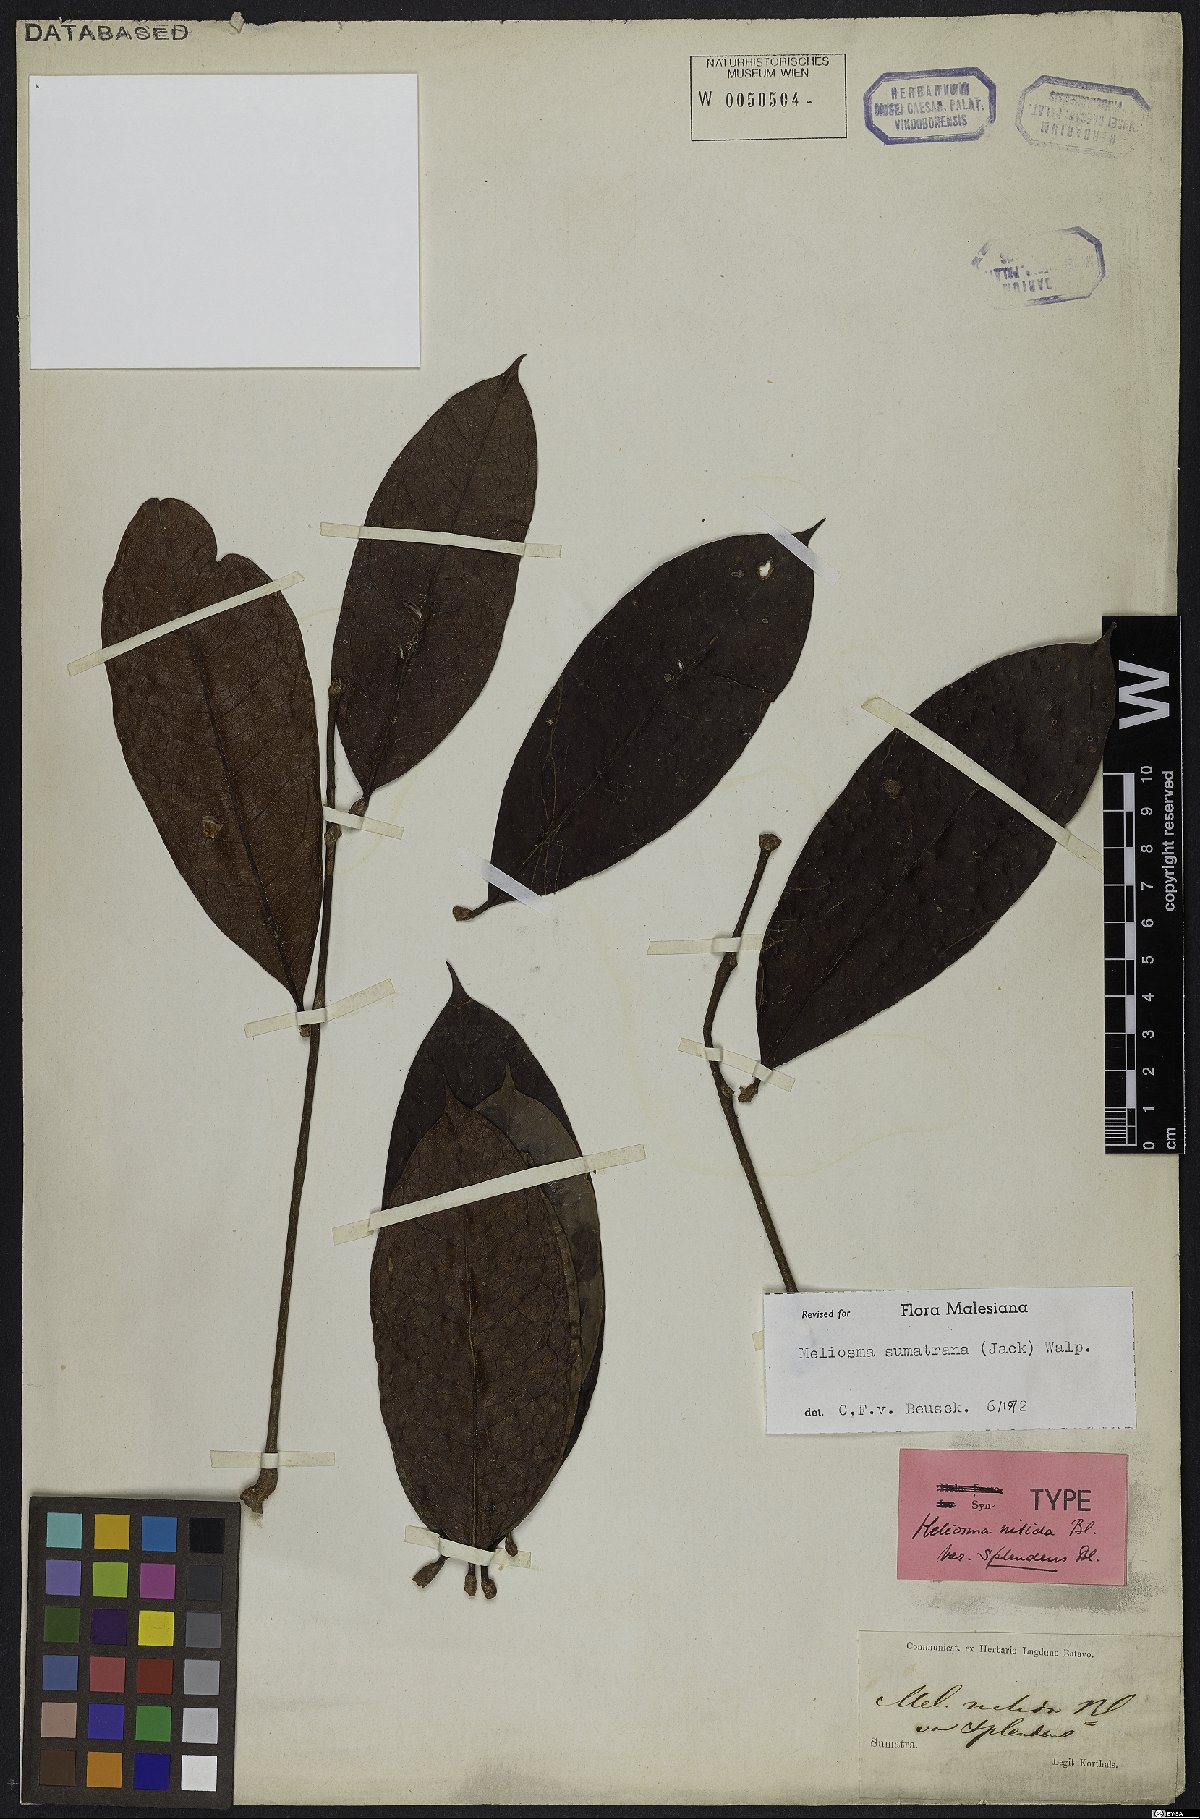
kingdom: Plantae
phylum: Tracheophyta
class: Magnoliopsida
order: Proteales
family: Sabiaceae
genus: Meliosma
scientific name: Meliosma sumatrana
